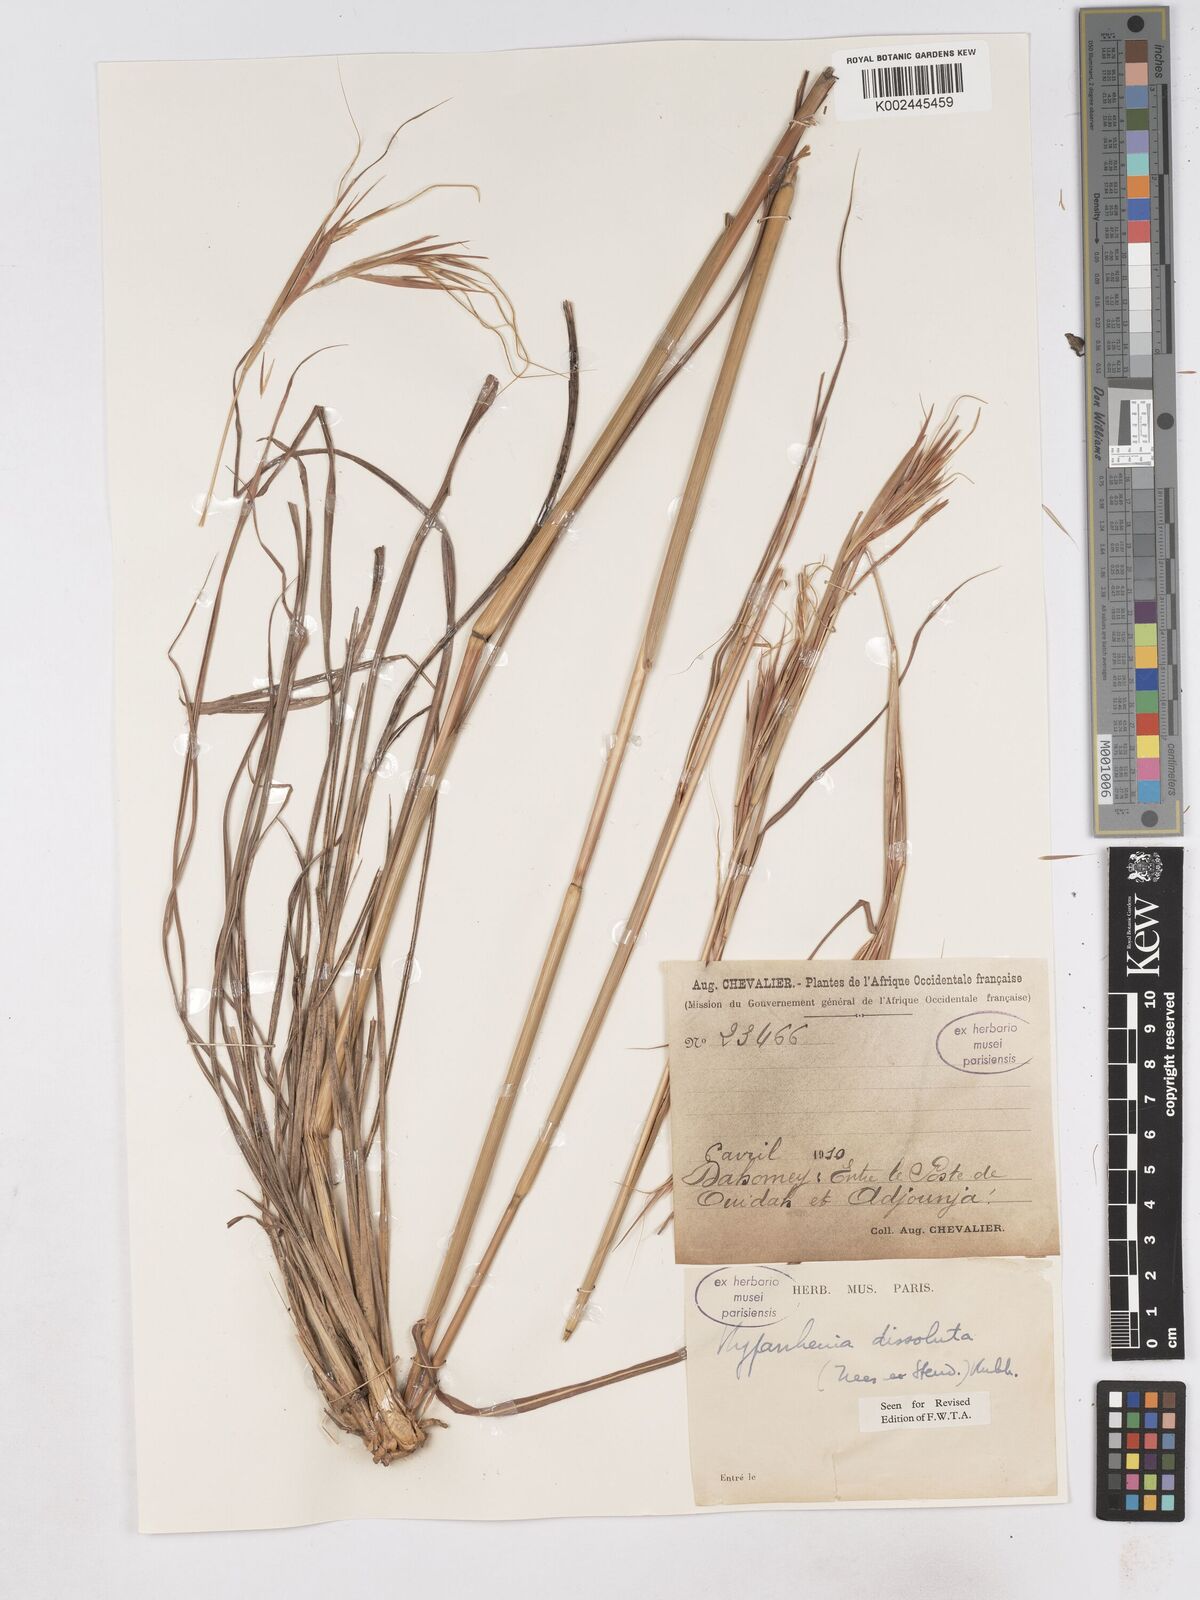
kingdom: Plantae
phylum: Tracheophyta
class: Liliopsida
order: Poales
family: Poaceae
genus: Hyperthelia
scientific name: Hyperthelia dissoluta
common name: Yellow thatching grass
